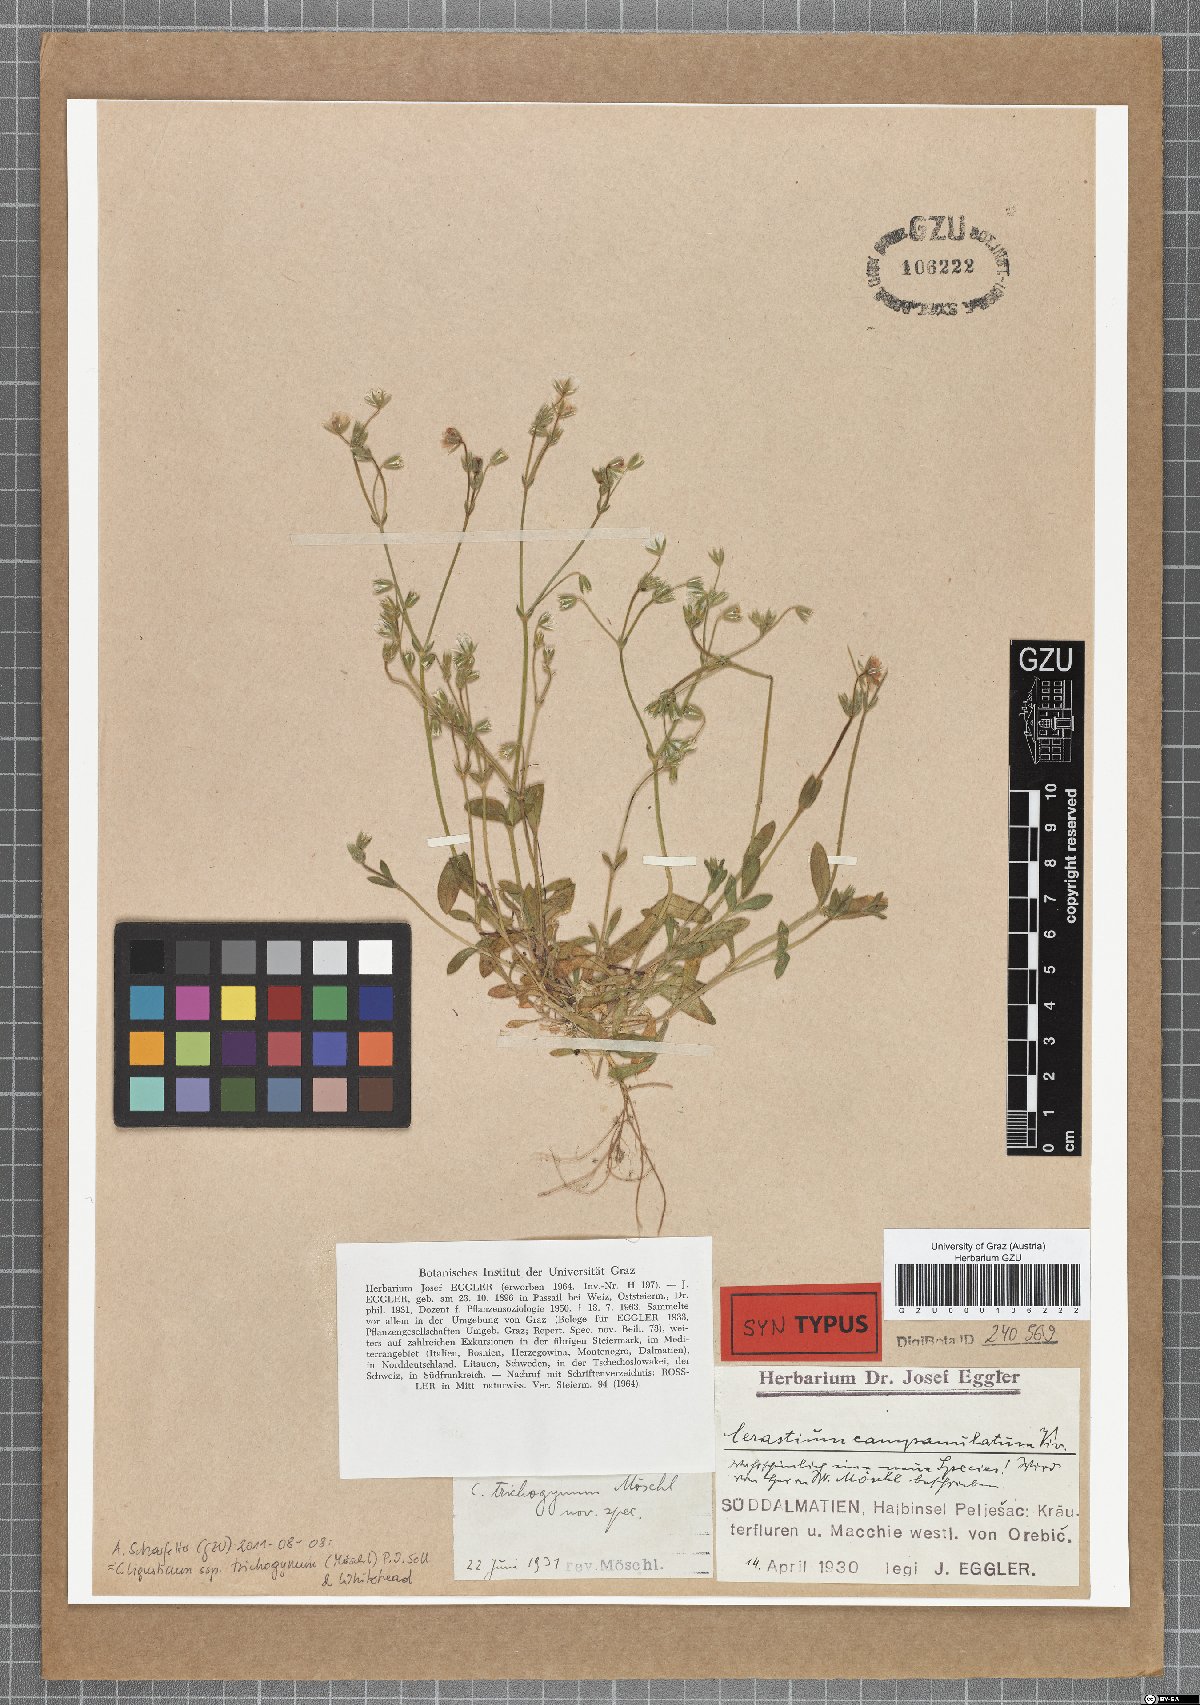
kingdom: Plantae
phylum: Tracheophyta
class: Magnoliopsida
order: Caryophyllales
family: Caryophyllaceae
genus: Cerastium
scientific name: Cerastium ligusticum
